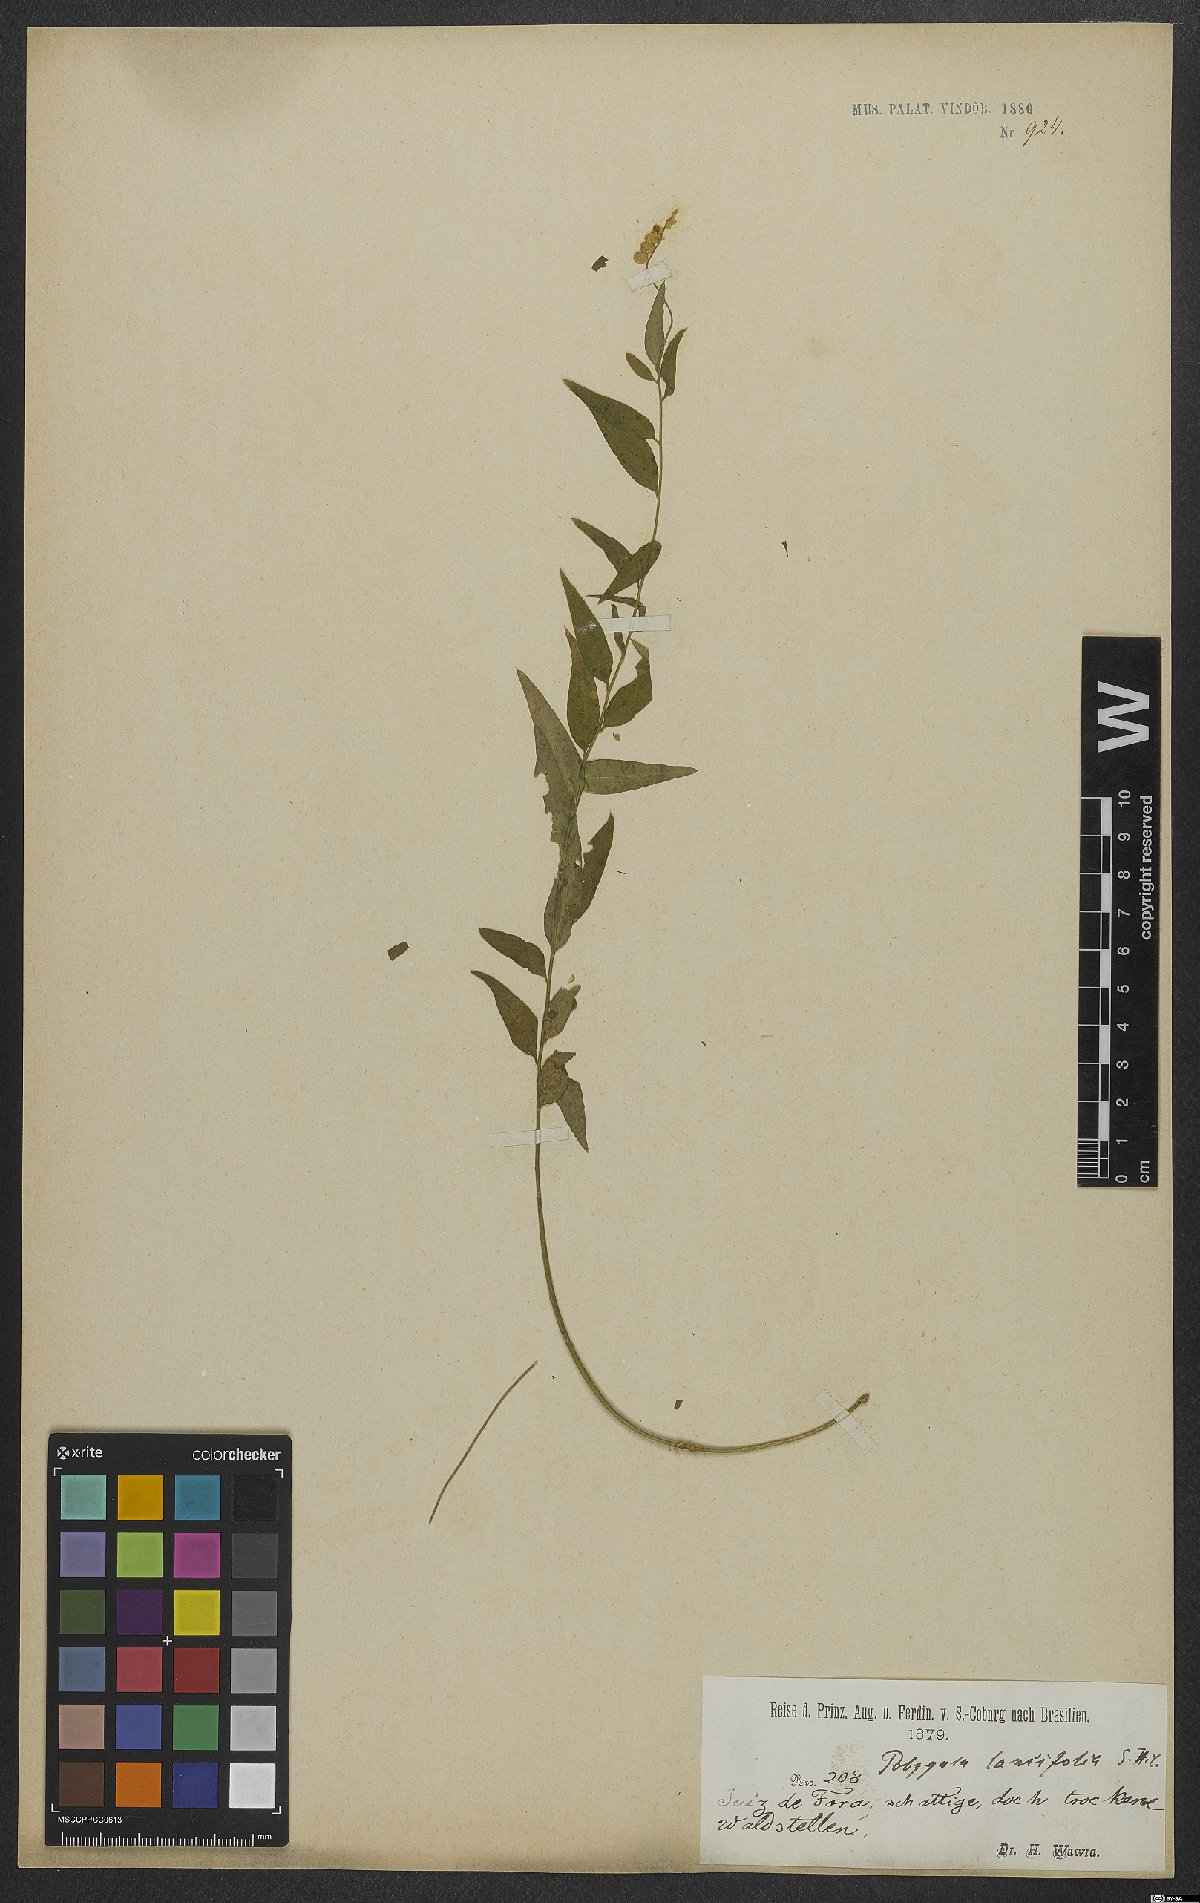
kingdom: Plantae
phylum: Tracheophyta
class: Magnoliopsida
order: Fabales
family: Polygalaceae
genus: Polygala
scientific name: Polygala lancifolia
